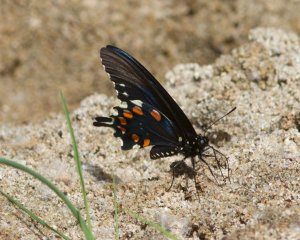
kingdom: Animalia
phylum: Arthropoda
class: Insecta
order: Lepidoptera
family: Papilionidae
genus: Battus
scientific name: Battus philenor
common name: Pipevine Swallowtail
